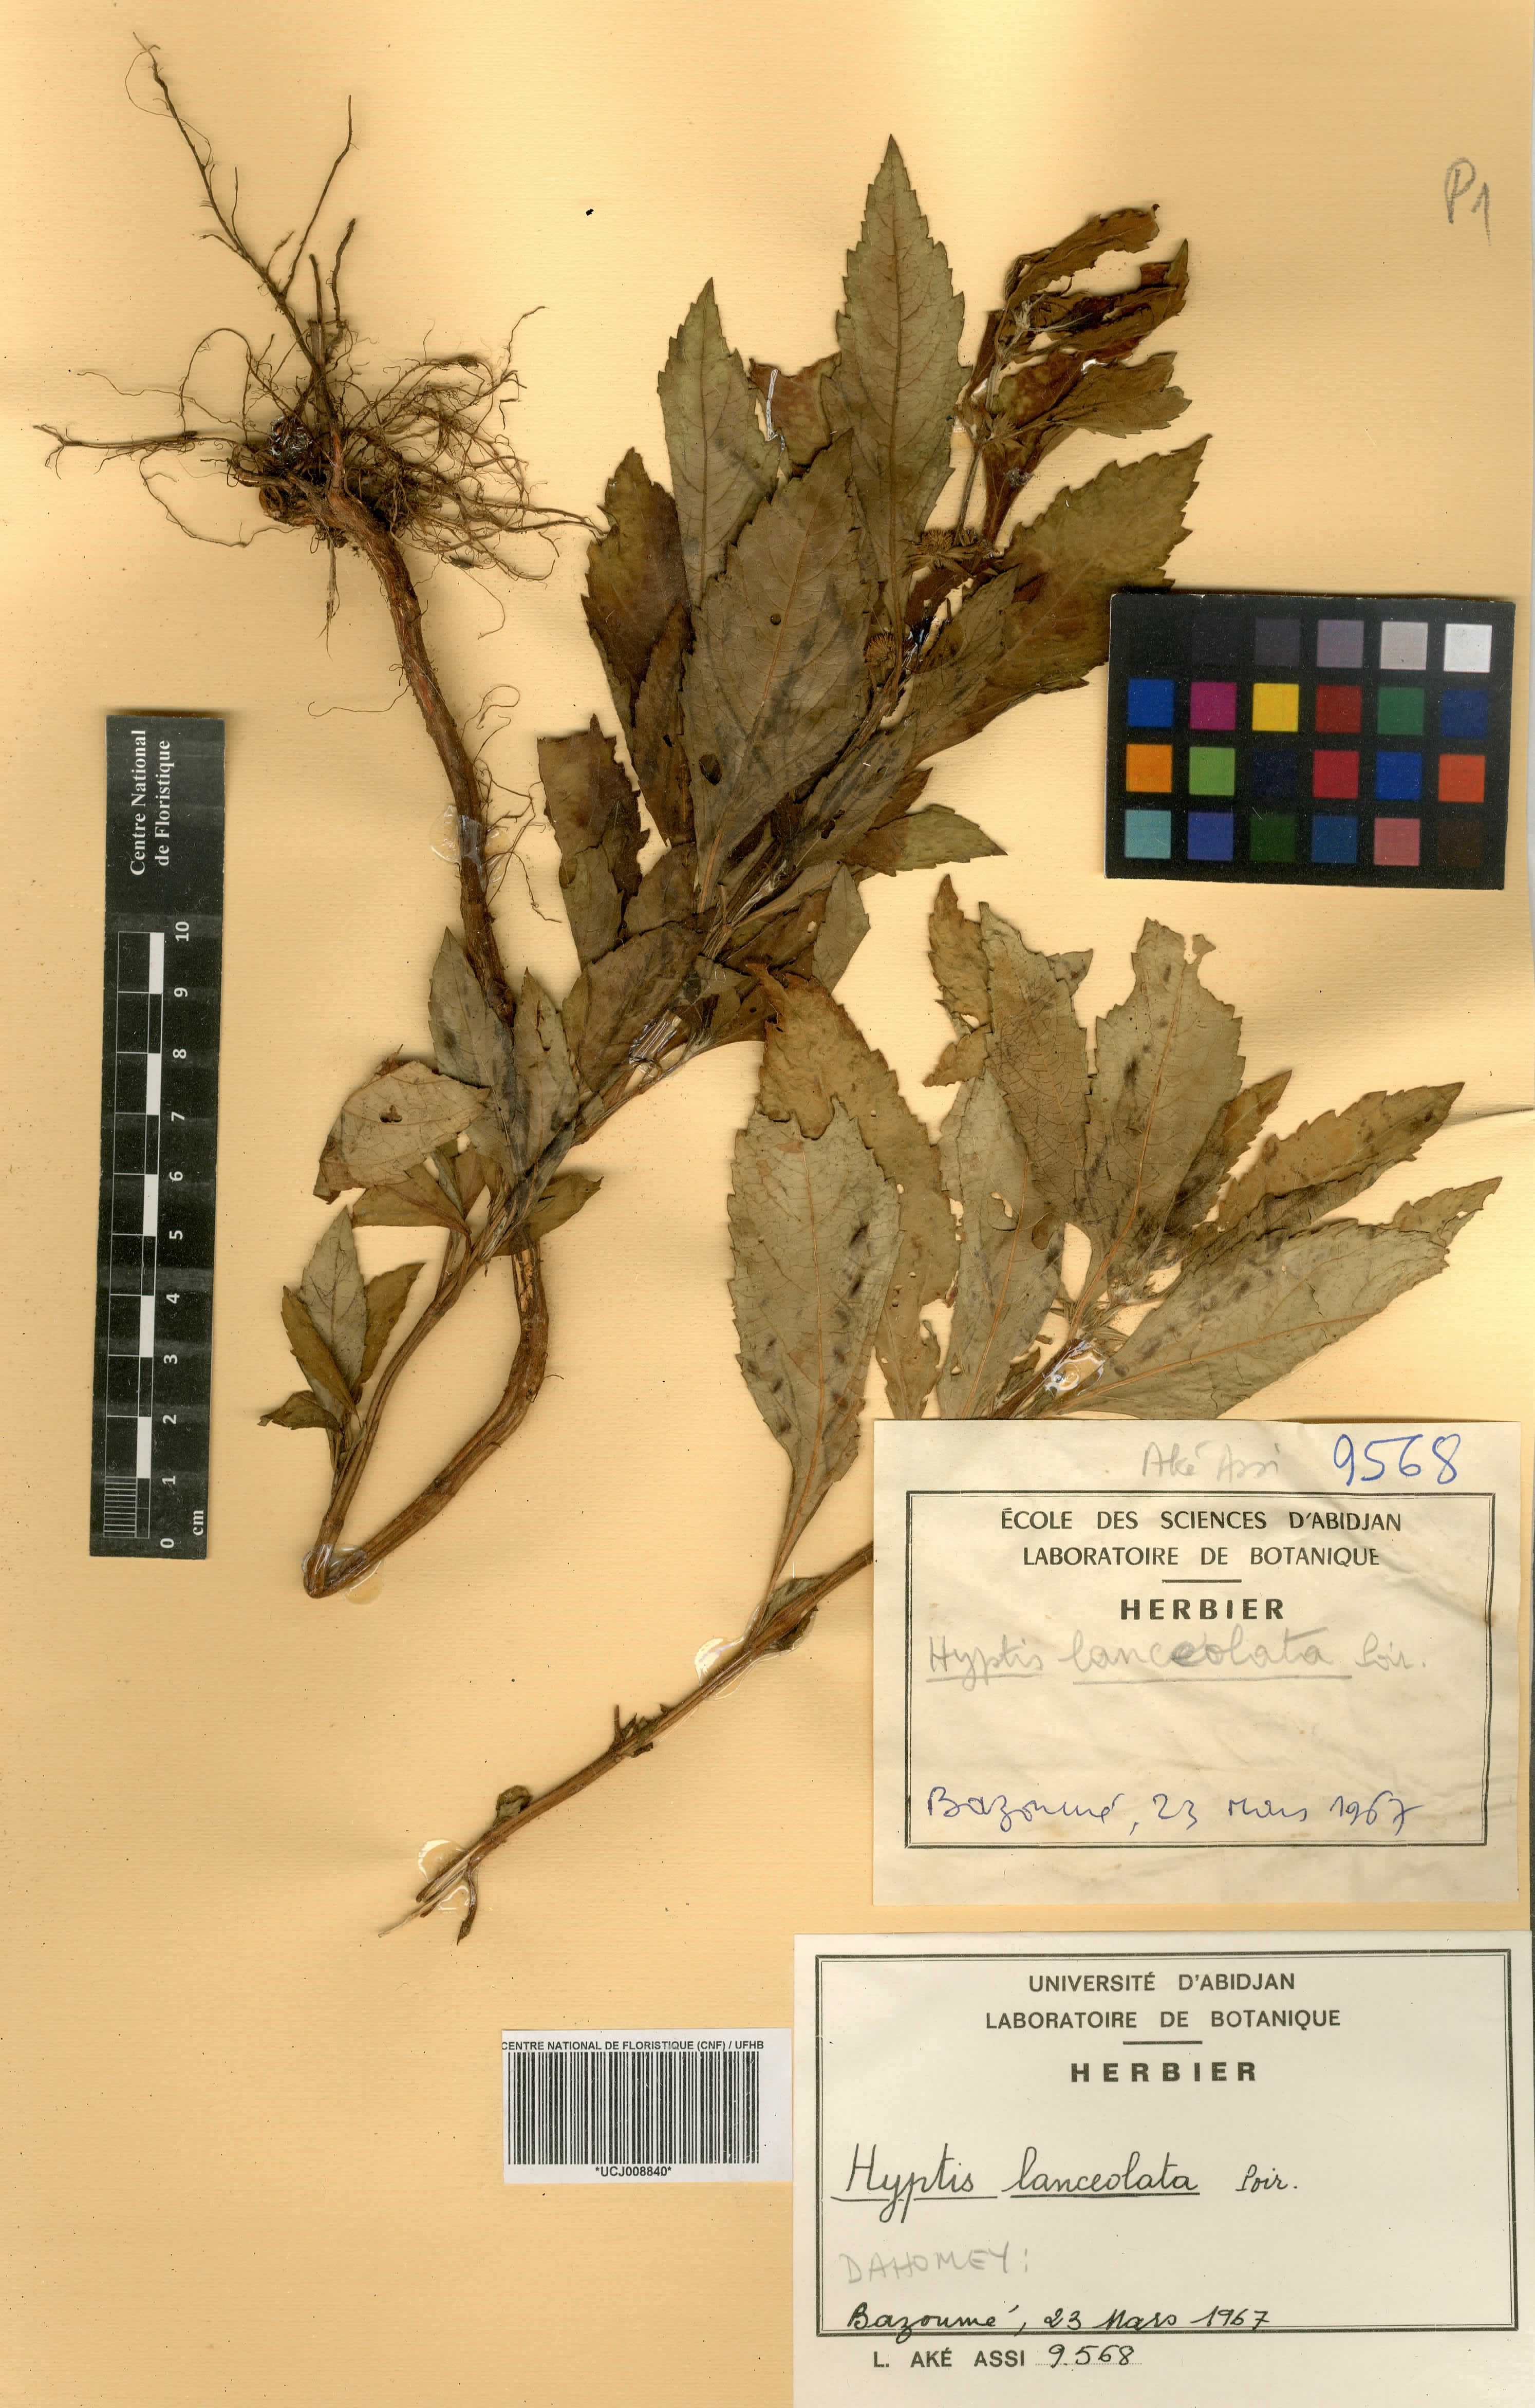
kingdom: Plantae
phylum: Tracheophyta
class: Magnoliopsida
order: Lamiales
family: Lamiaceae
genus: Hyptis
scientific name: Hyptis lanceolata
